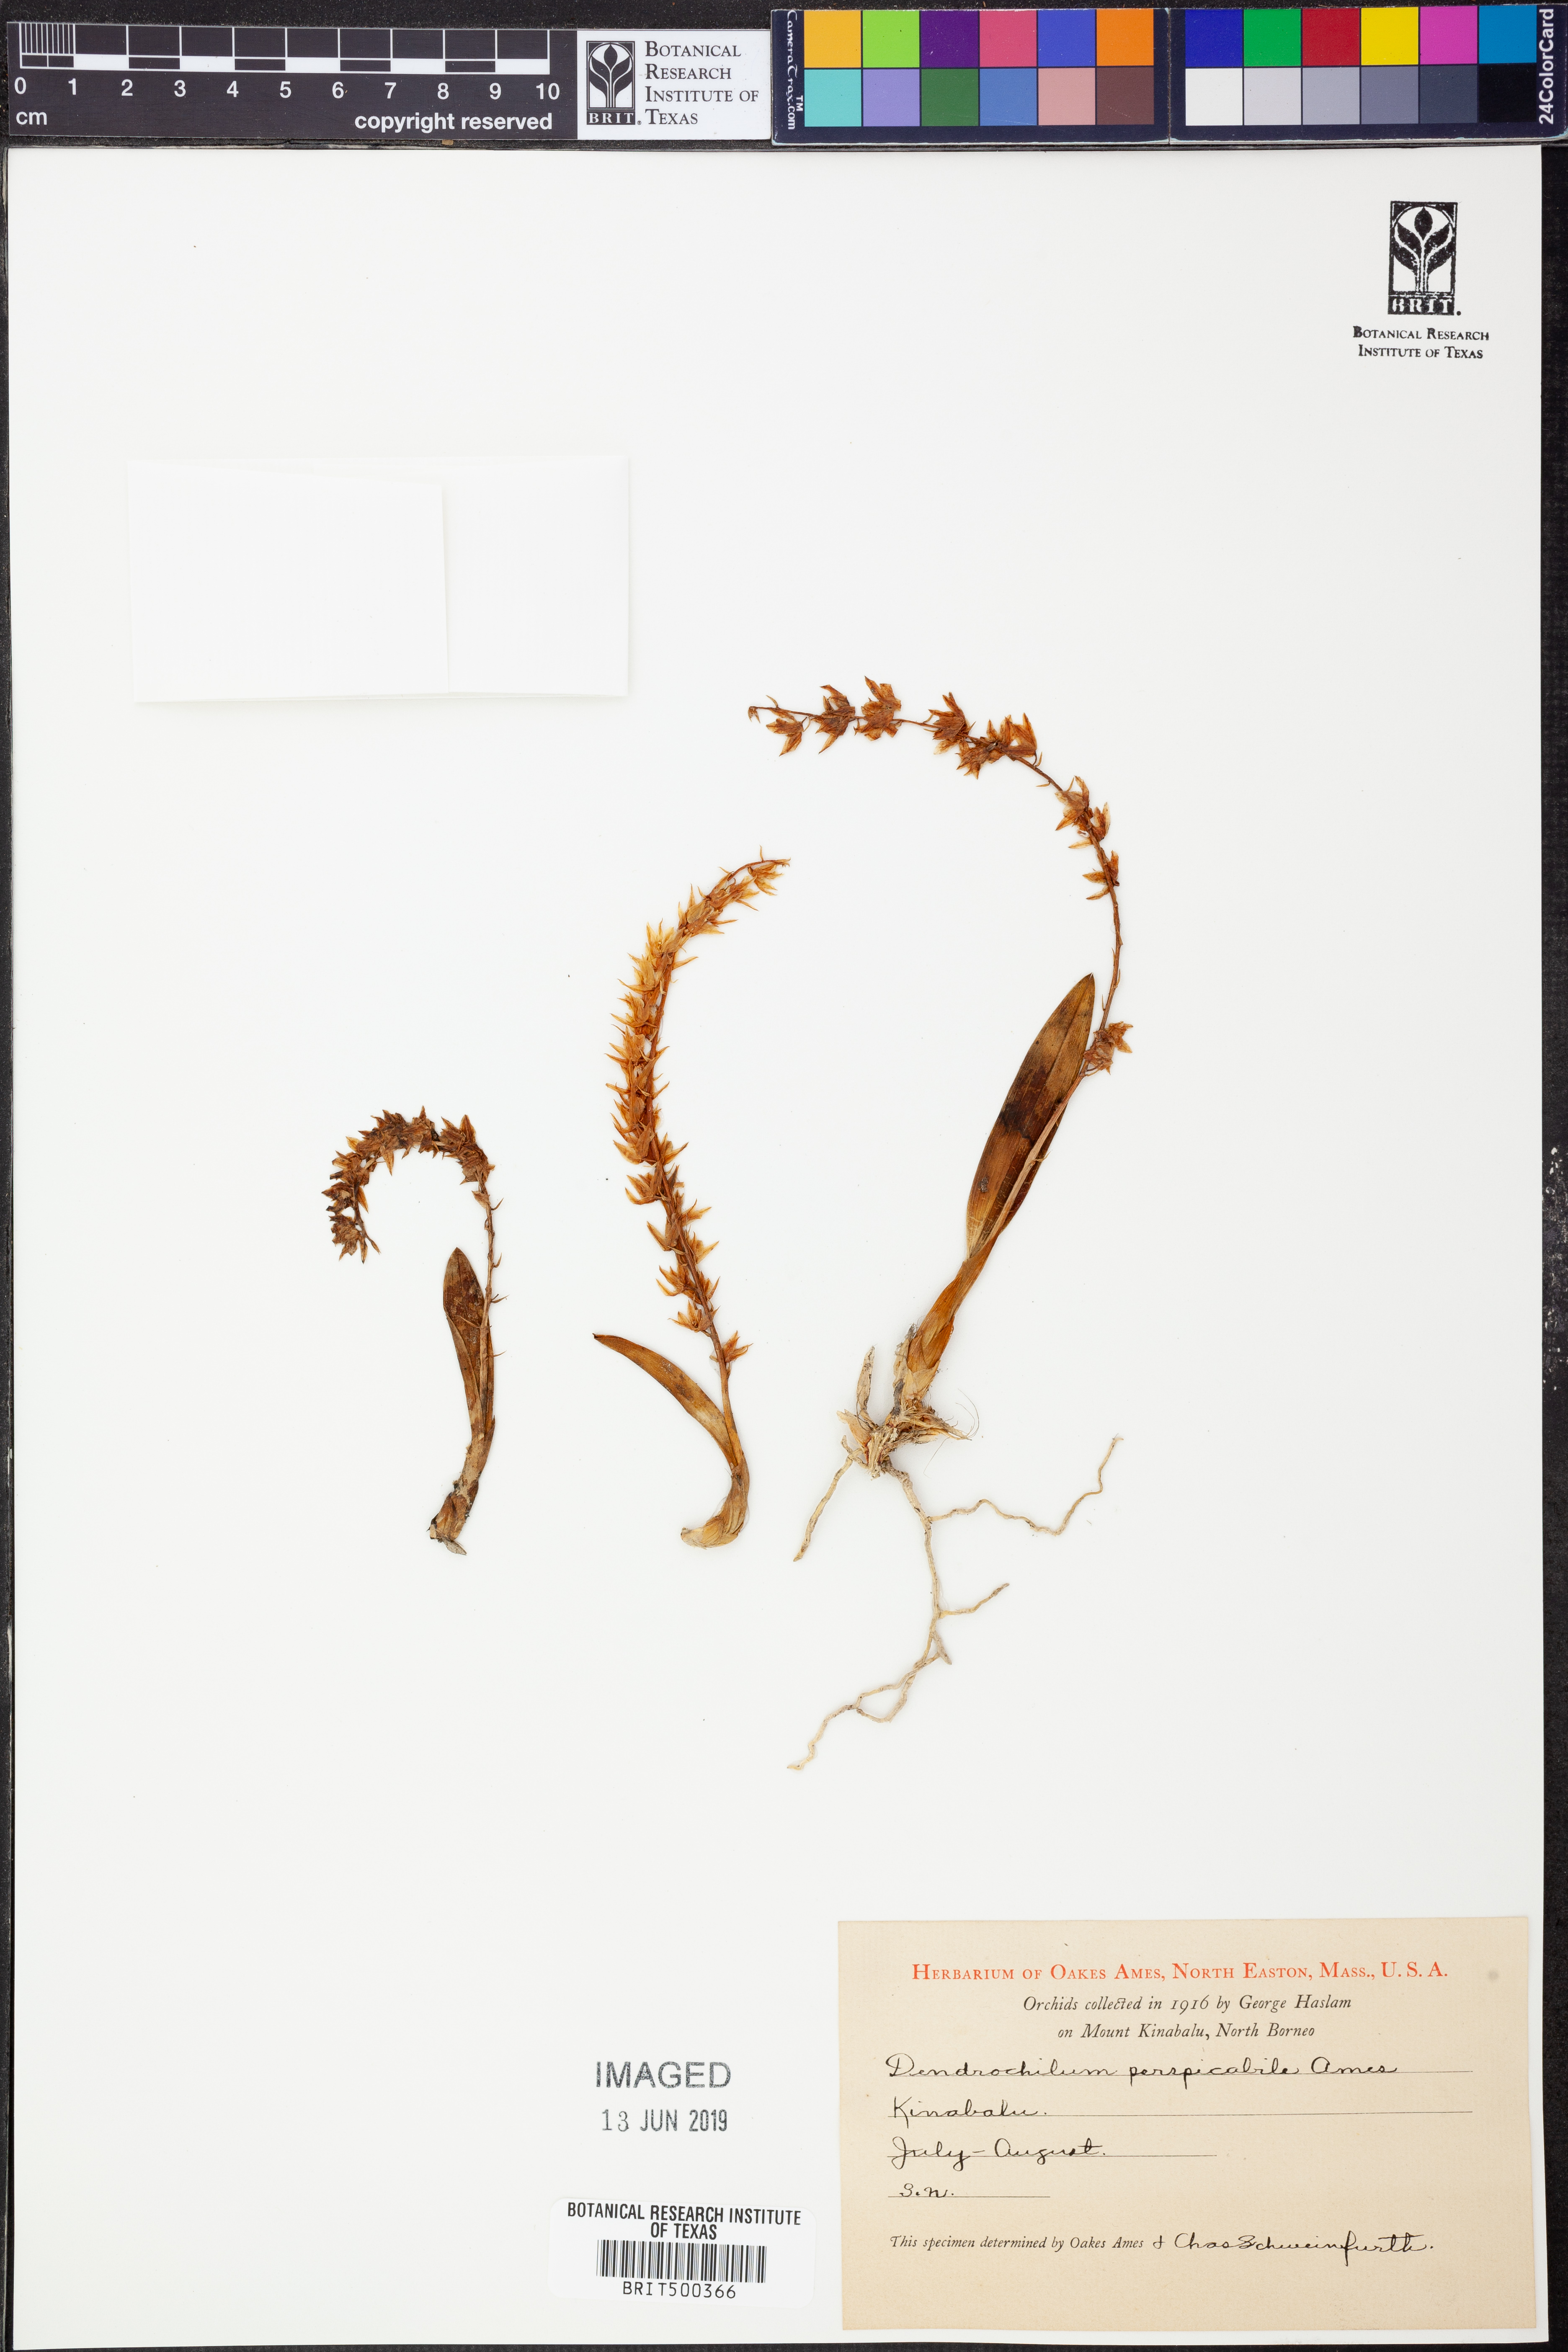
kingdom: Plantae
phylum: Tracheophyta
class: Liliopsida
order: Asparagales
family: Orchidaceae
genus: Coelogyne
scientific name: Coelogyne dewindtiana
